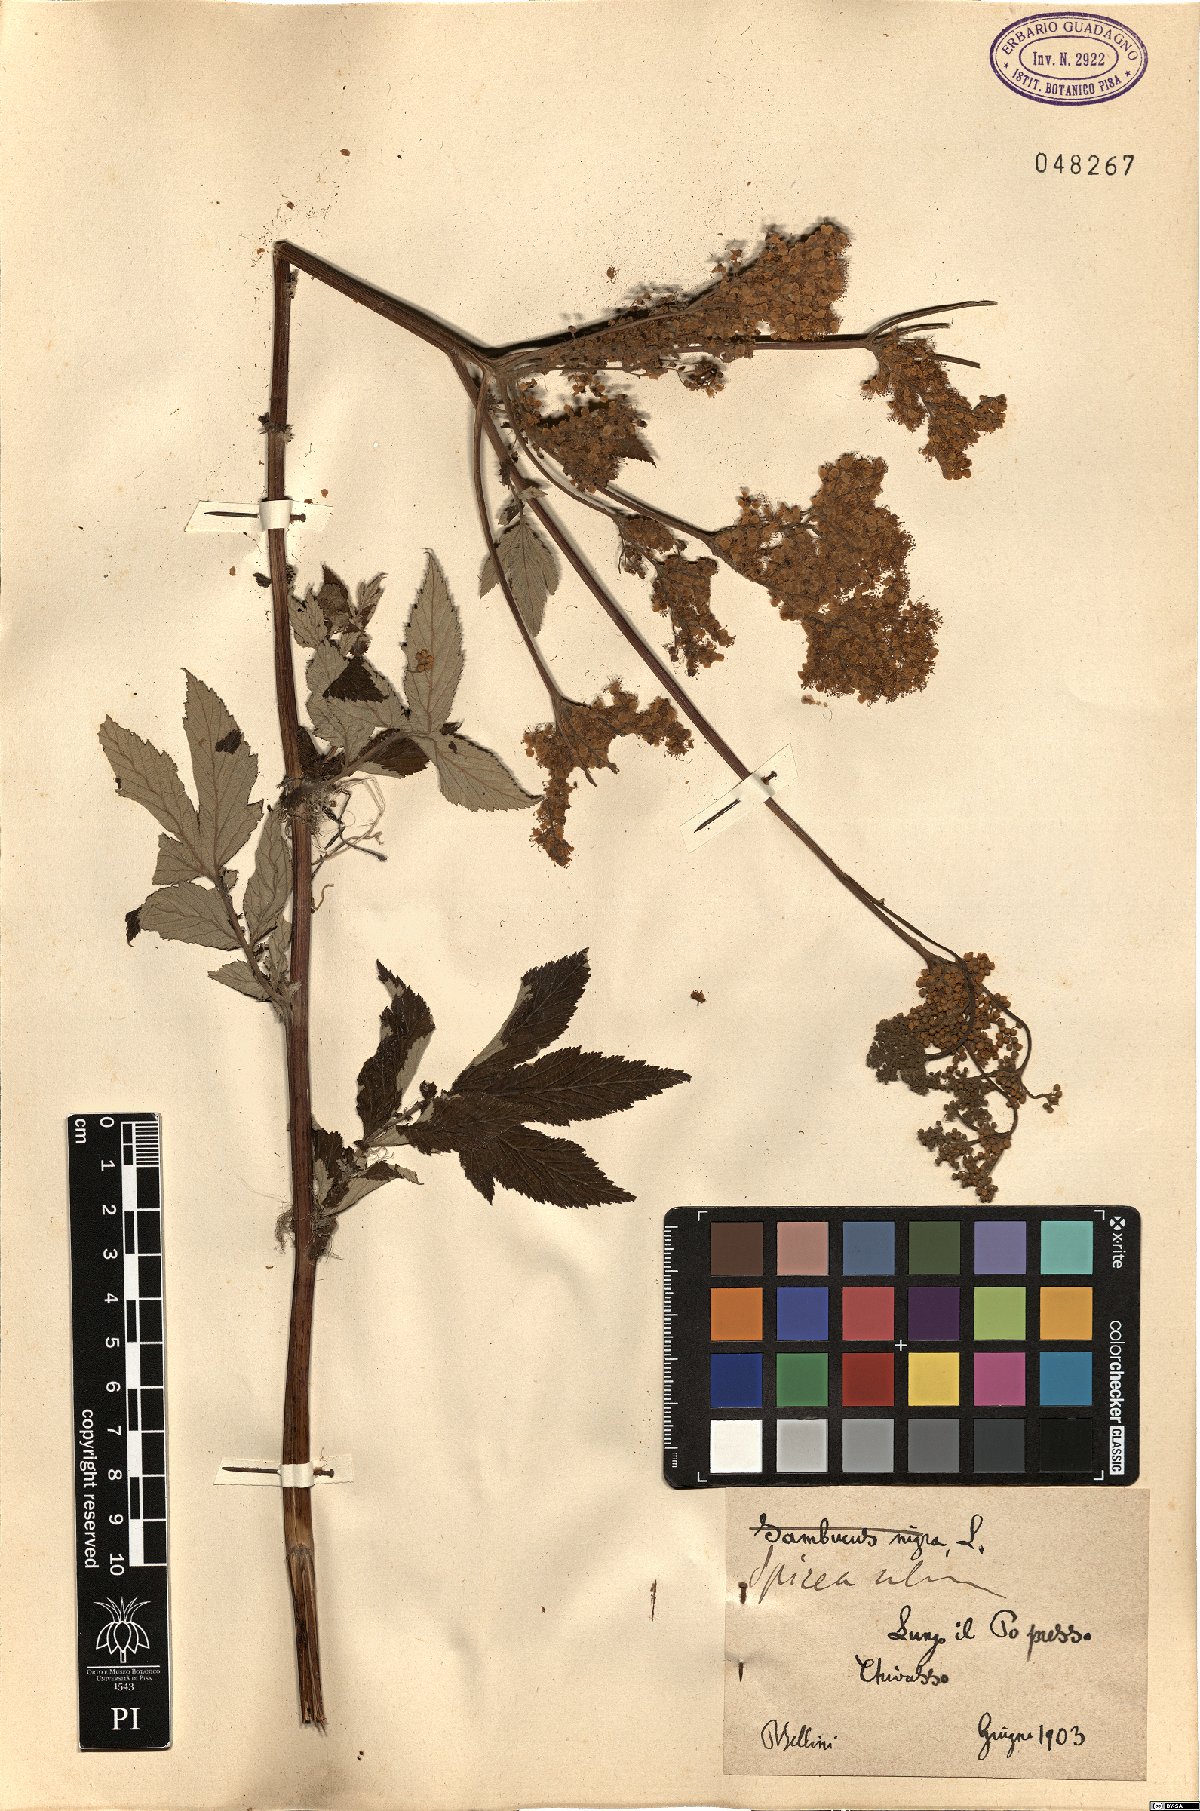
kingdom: Plantae
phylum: Tracheophyta
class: Magnoliopsida
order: Rosales
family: Rosaceae
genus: Spiraea
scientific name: Spiraea
